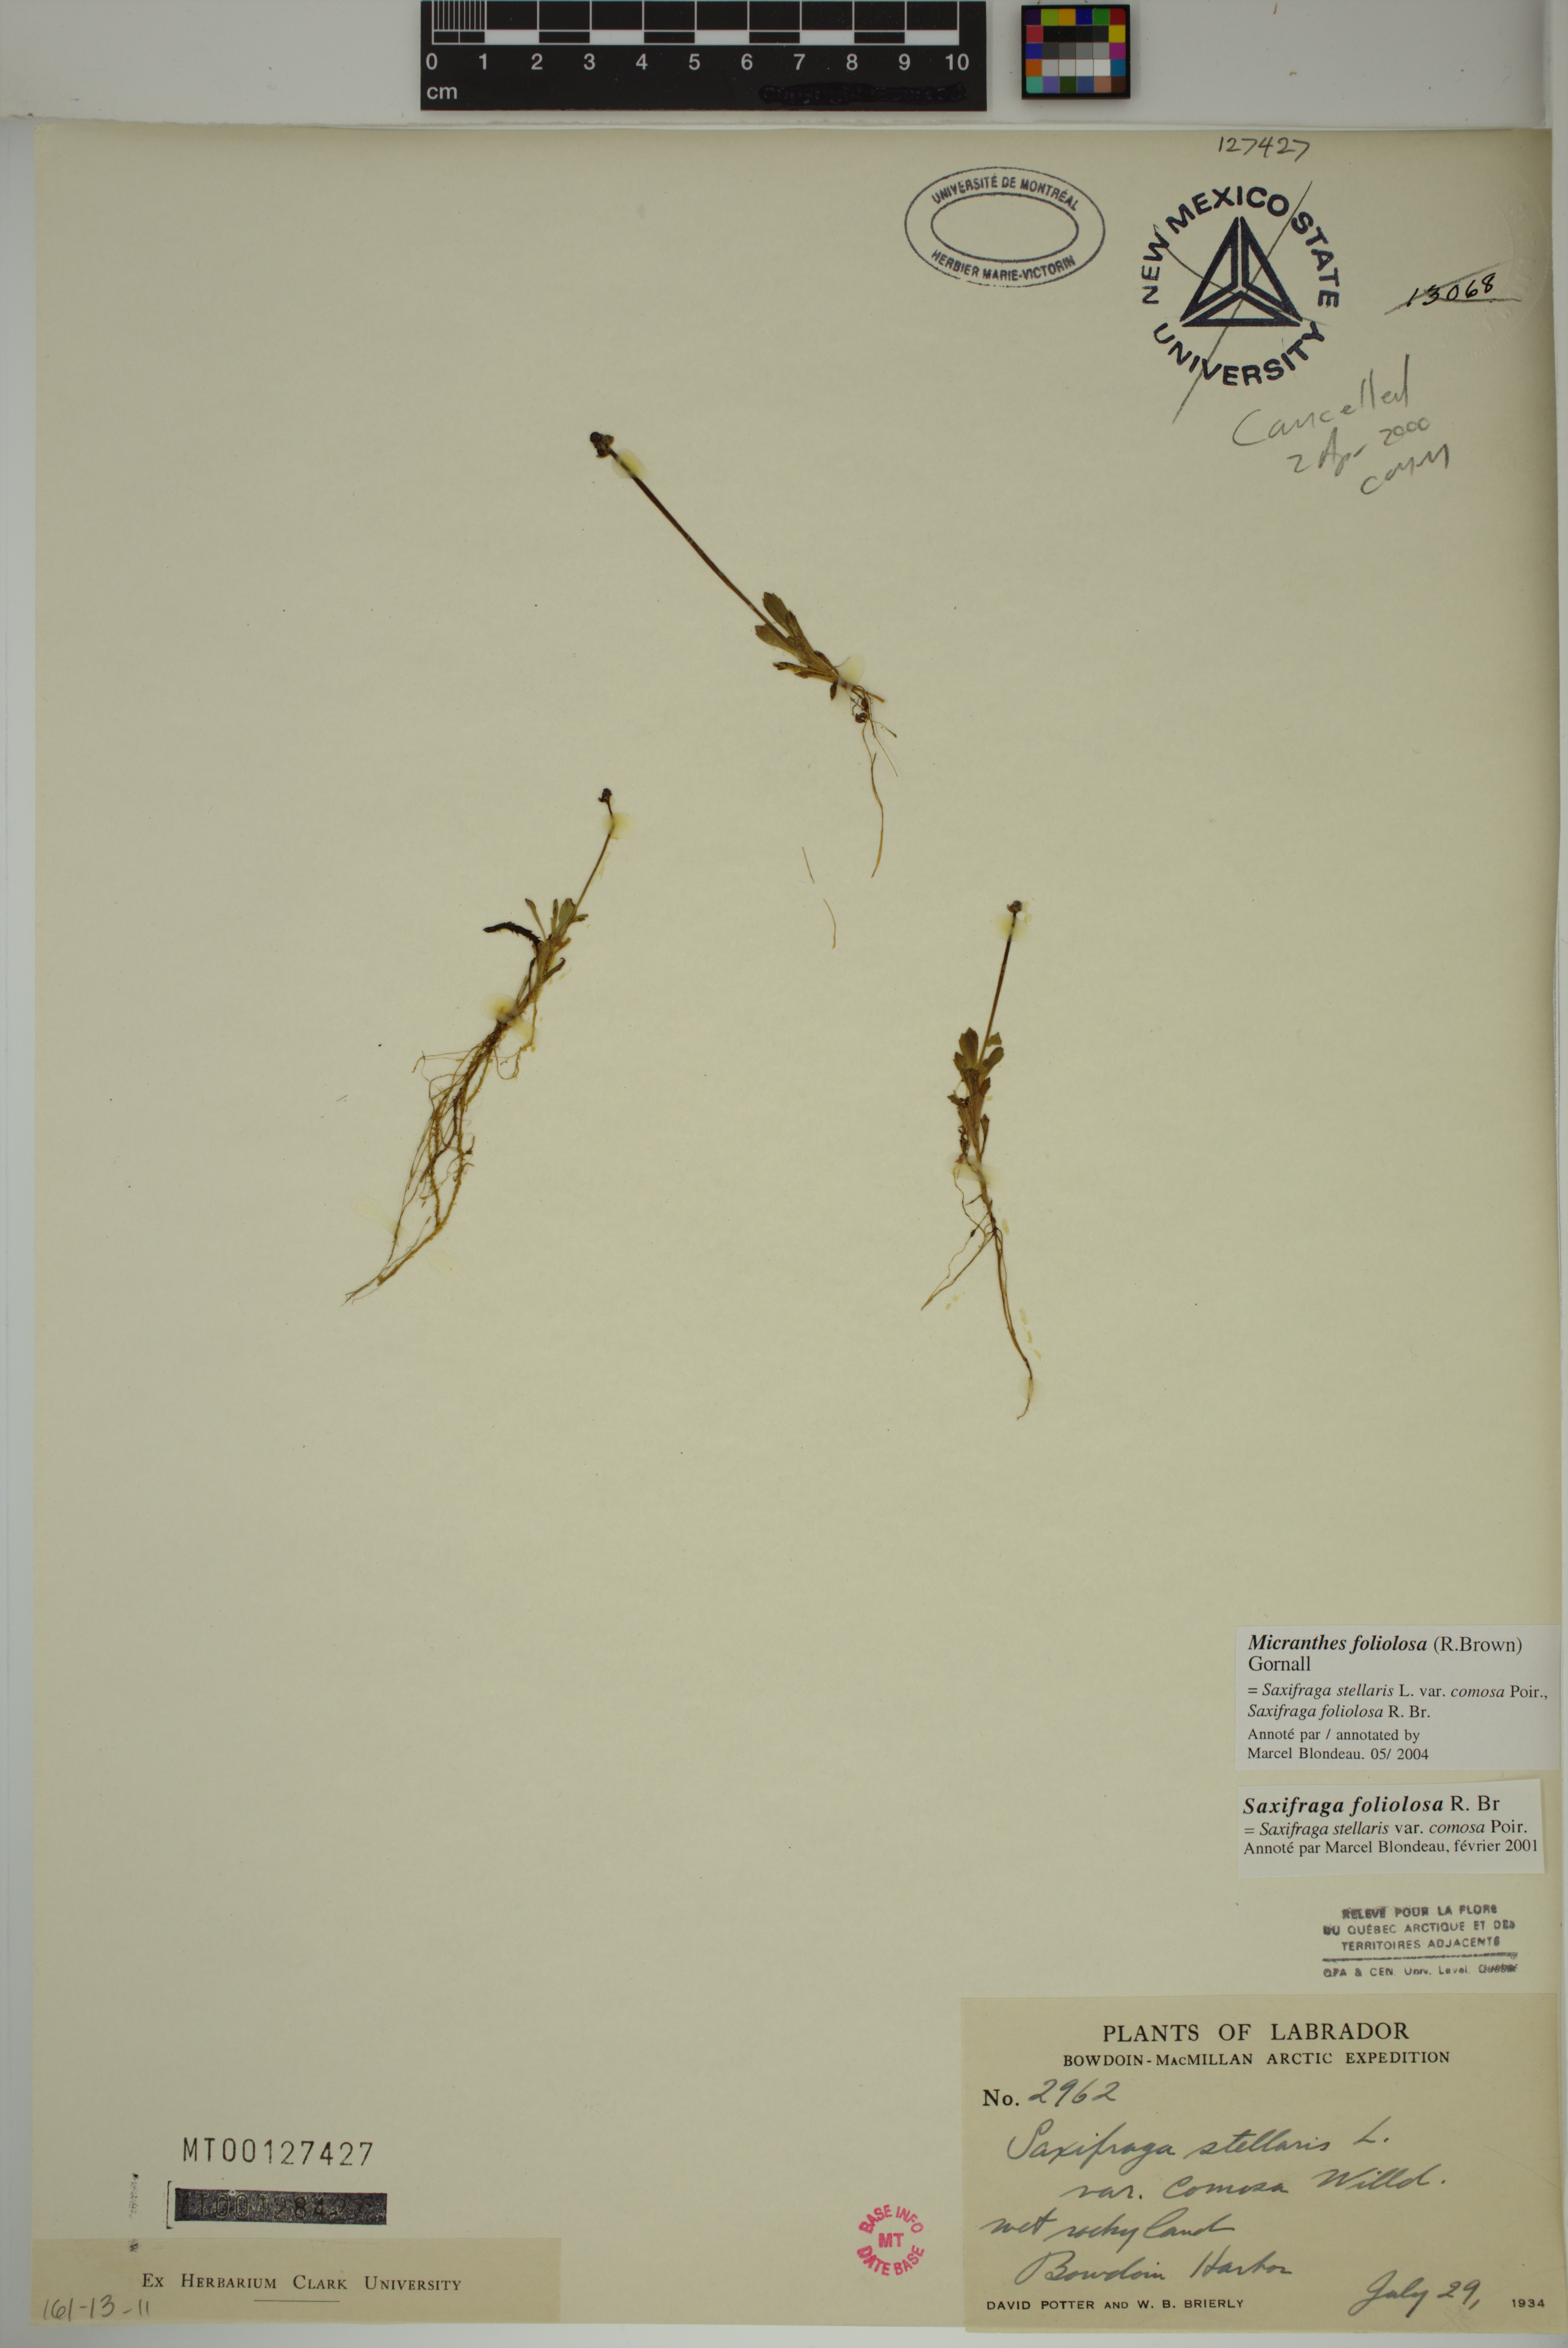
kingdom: Plantae
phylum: Tracheophyta
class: Magnoliopsida
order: Saxifragales
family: Saxifragaceae
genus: Micranthes
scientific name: Micranthes foliolosa
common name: Leafystem saxifrage
